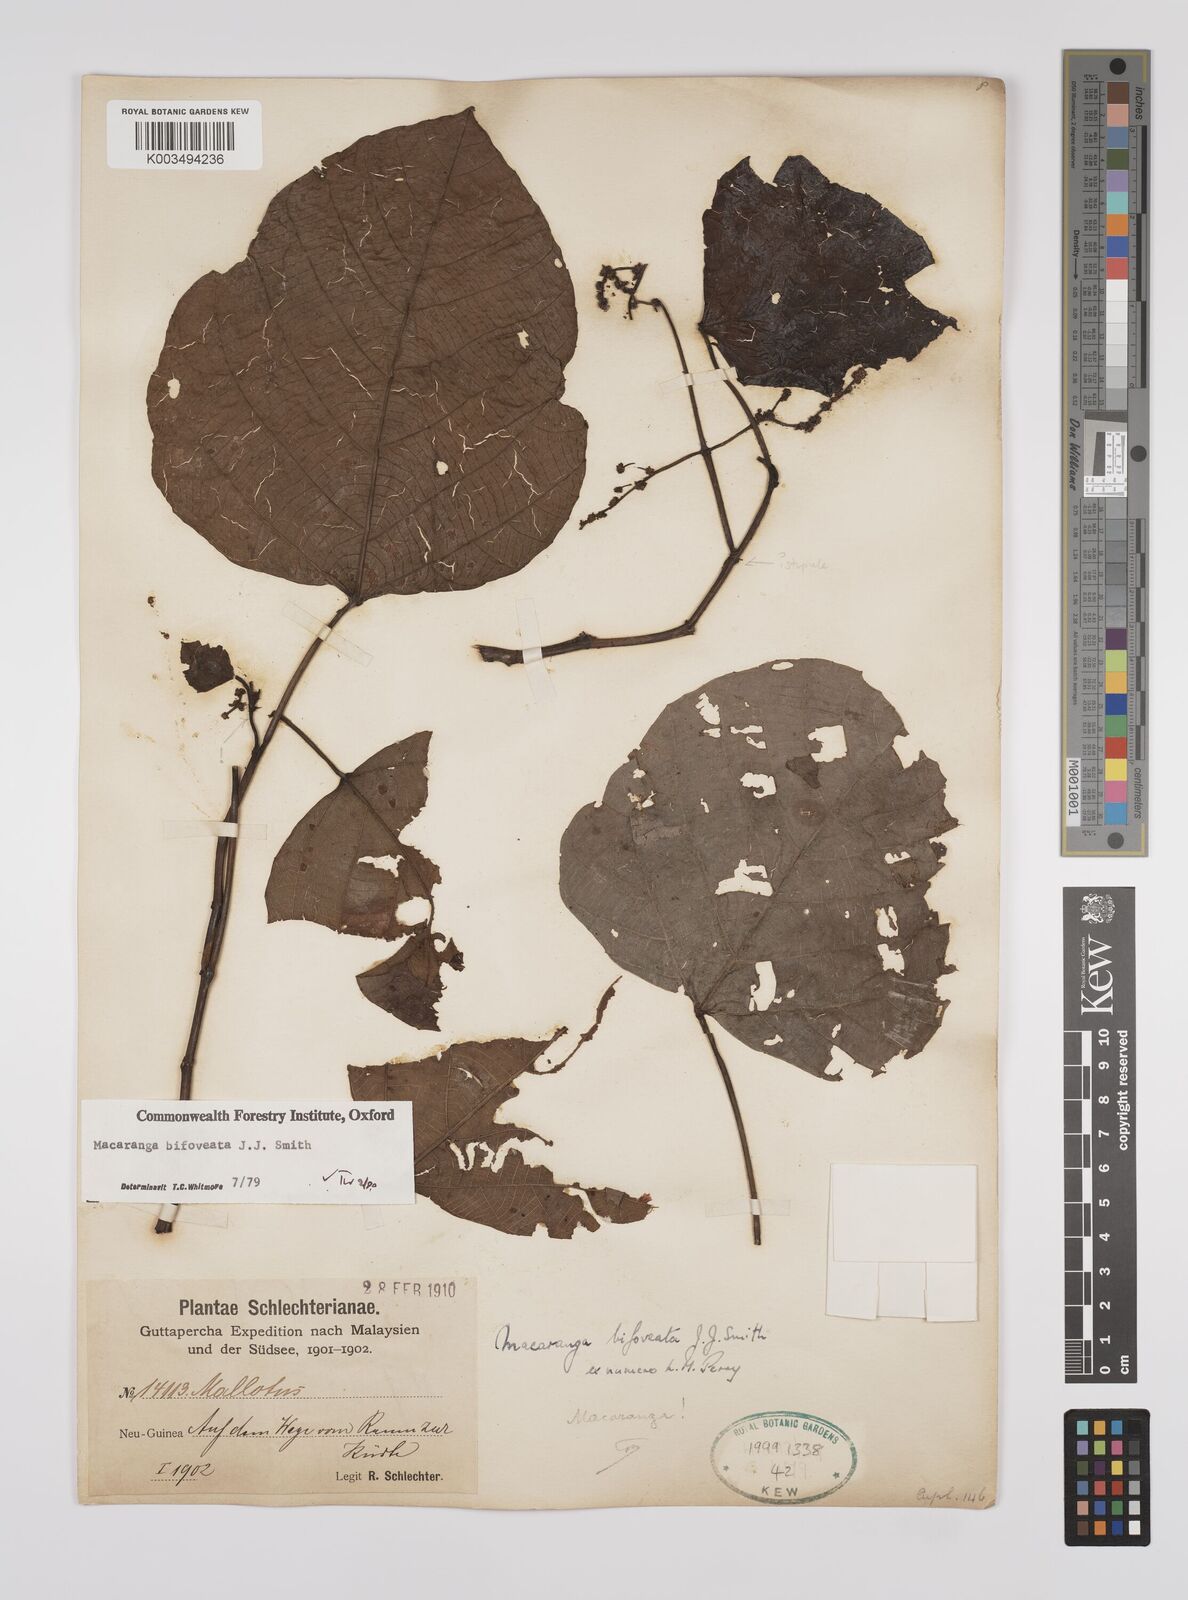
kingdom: Plantae
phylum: Tracheophyta
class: Magnoliopsida
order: Malpighiales
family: Euphorbiaceae
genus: Macaranga
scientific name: Macaranga bifoveata
